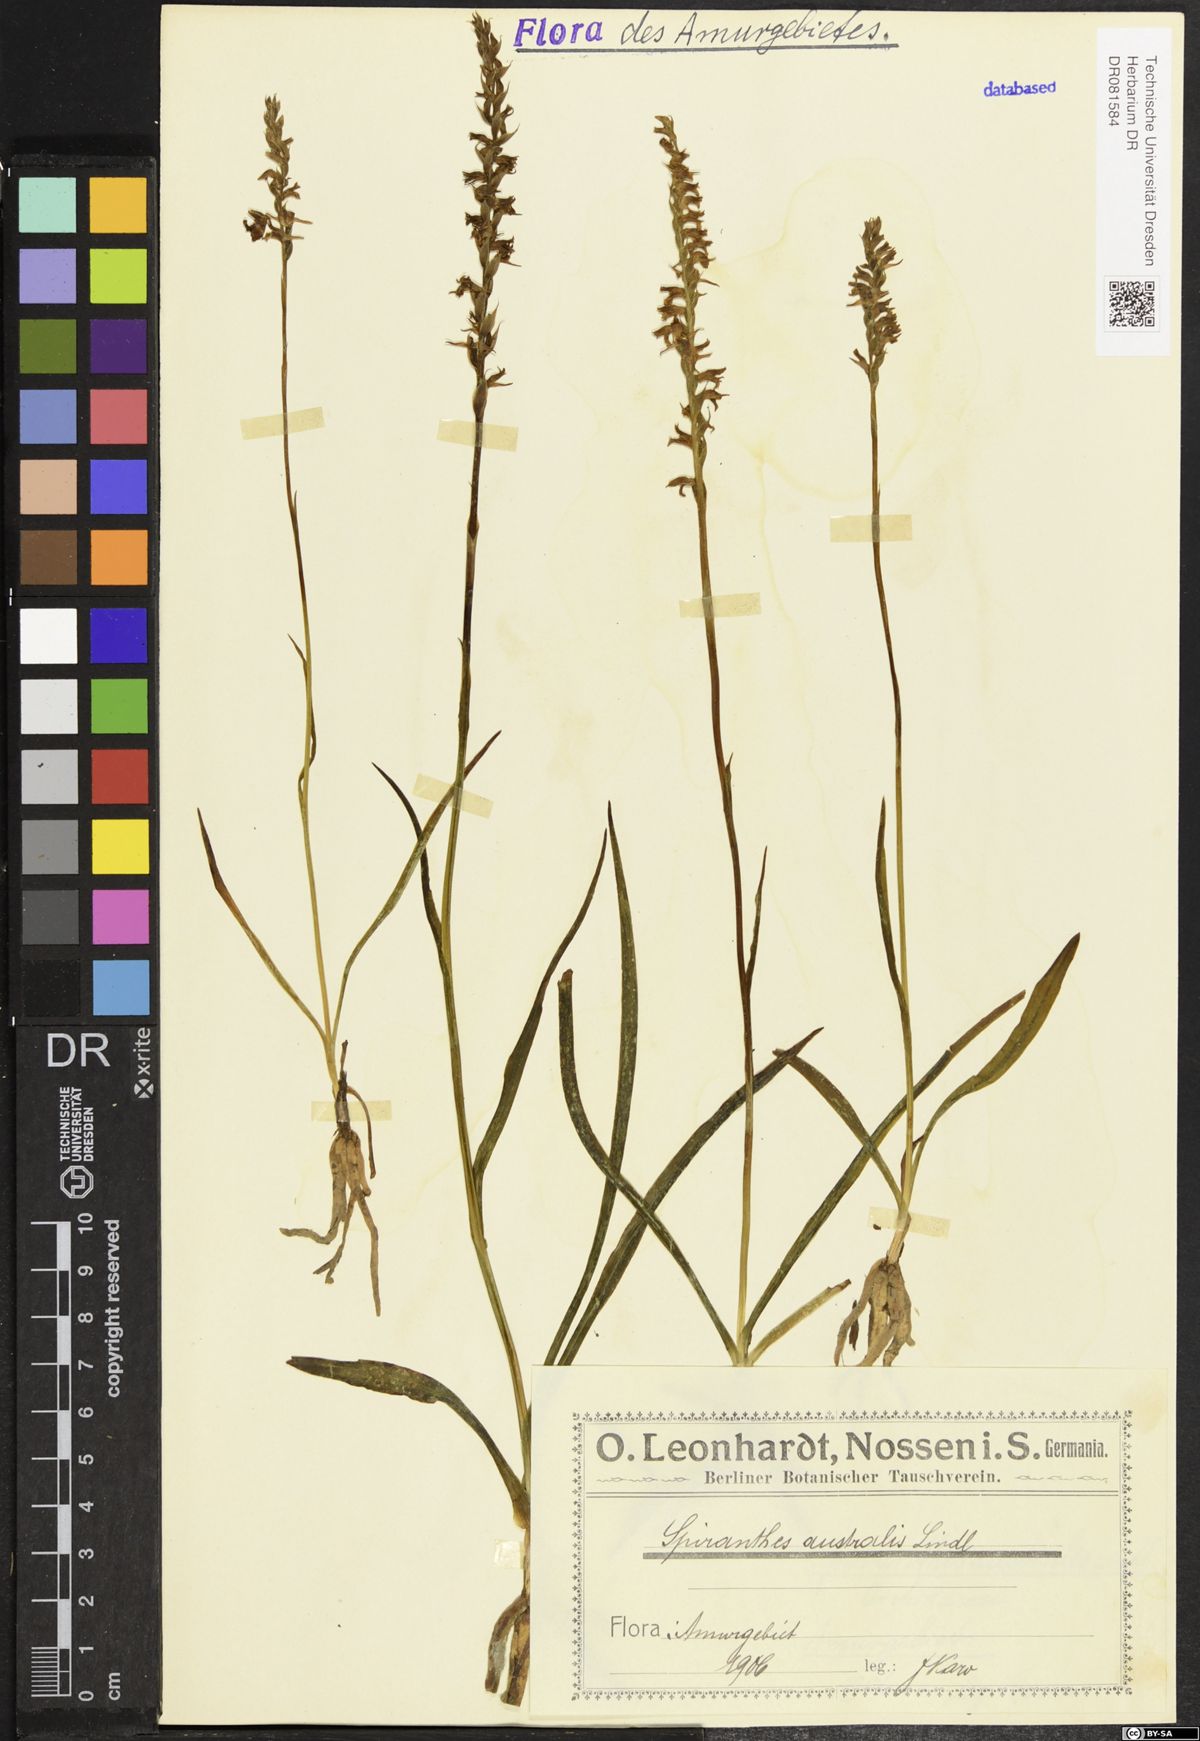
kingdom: Plantae
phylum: Tracheophyta
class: Liliopsida
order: Asparagales
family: Orchidaceae
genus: Spiranthes
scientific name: Spiranthes australis
